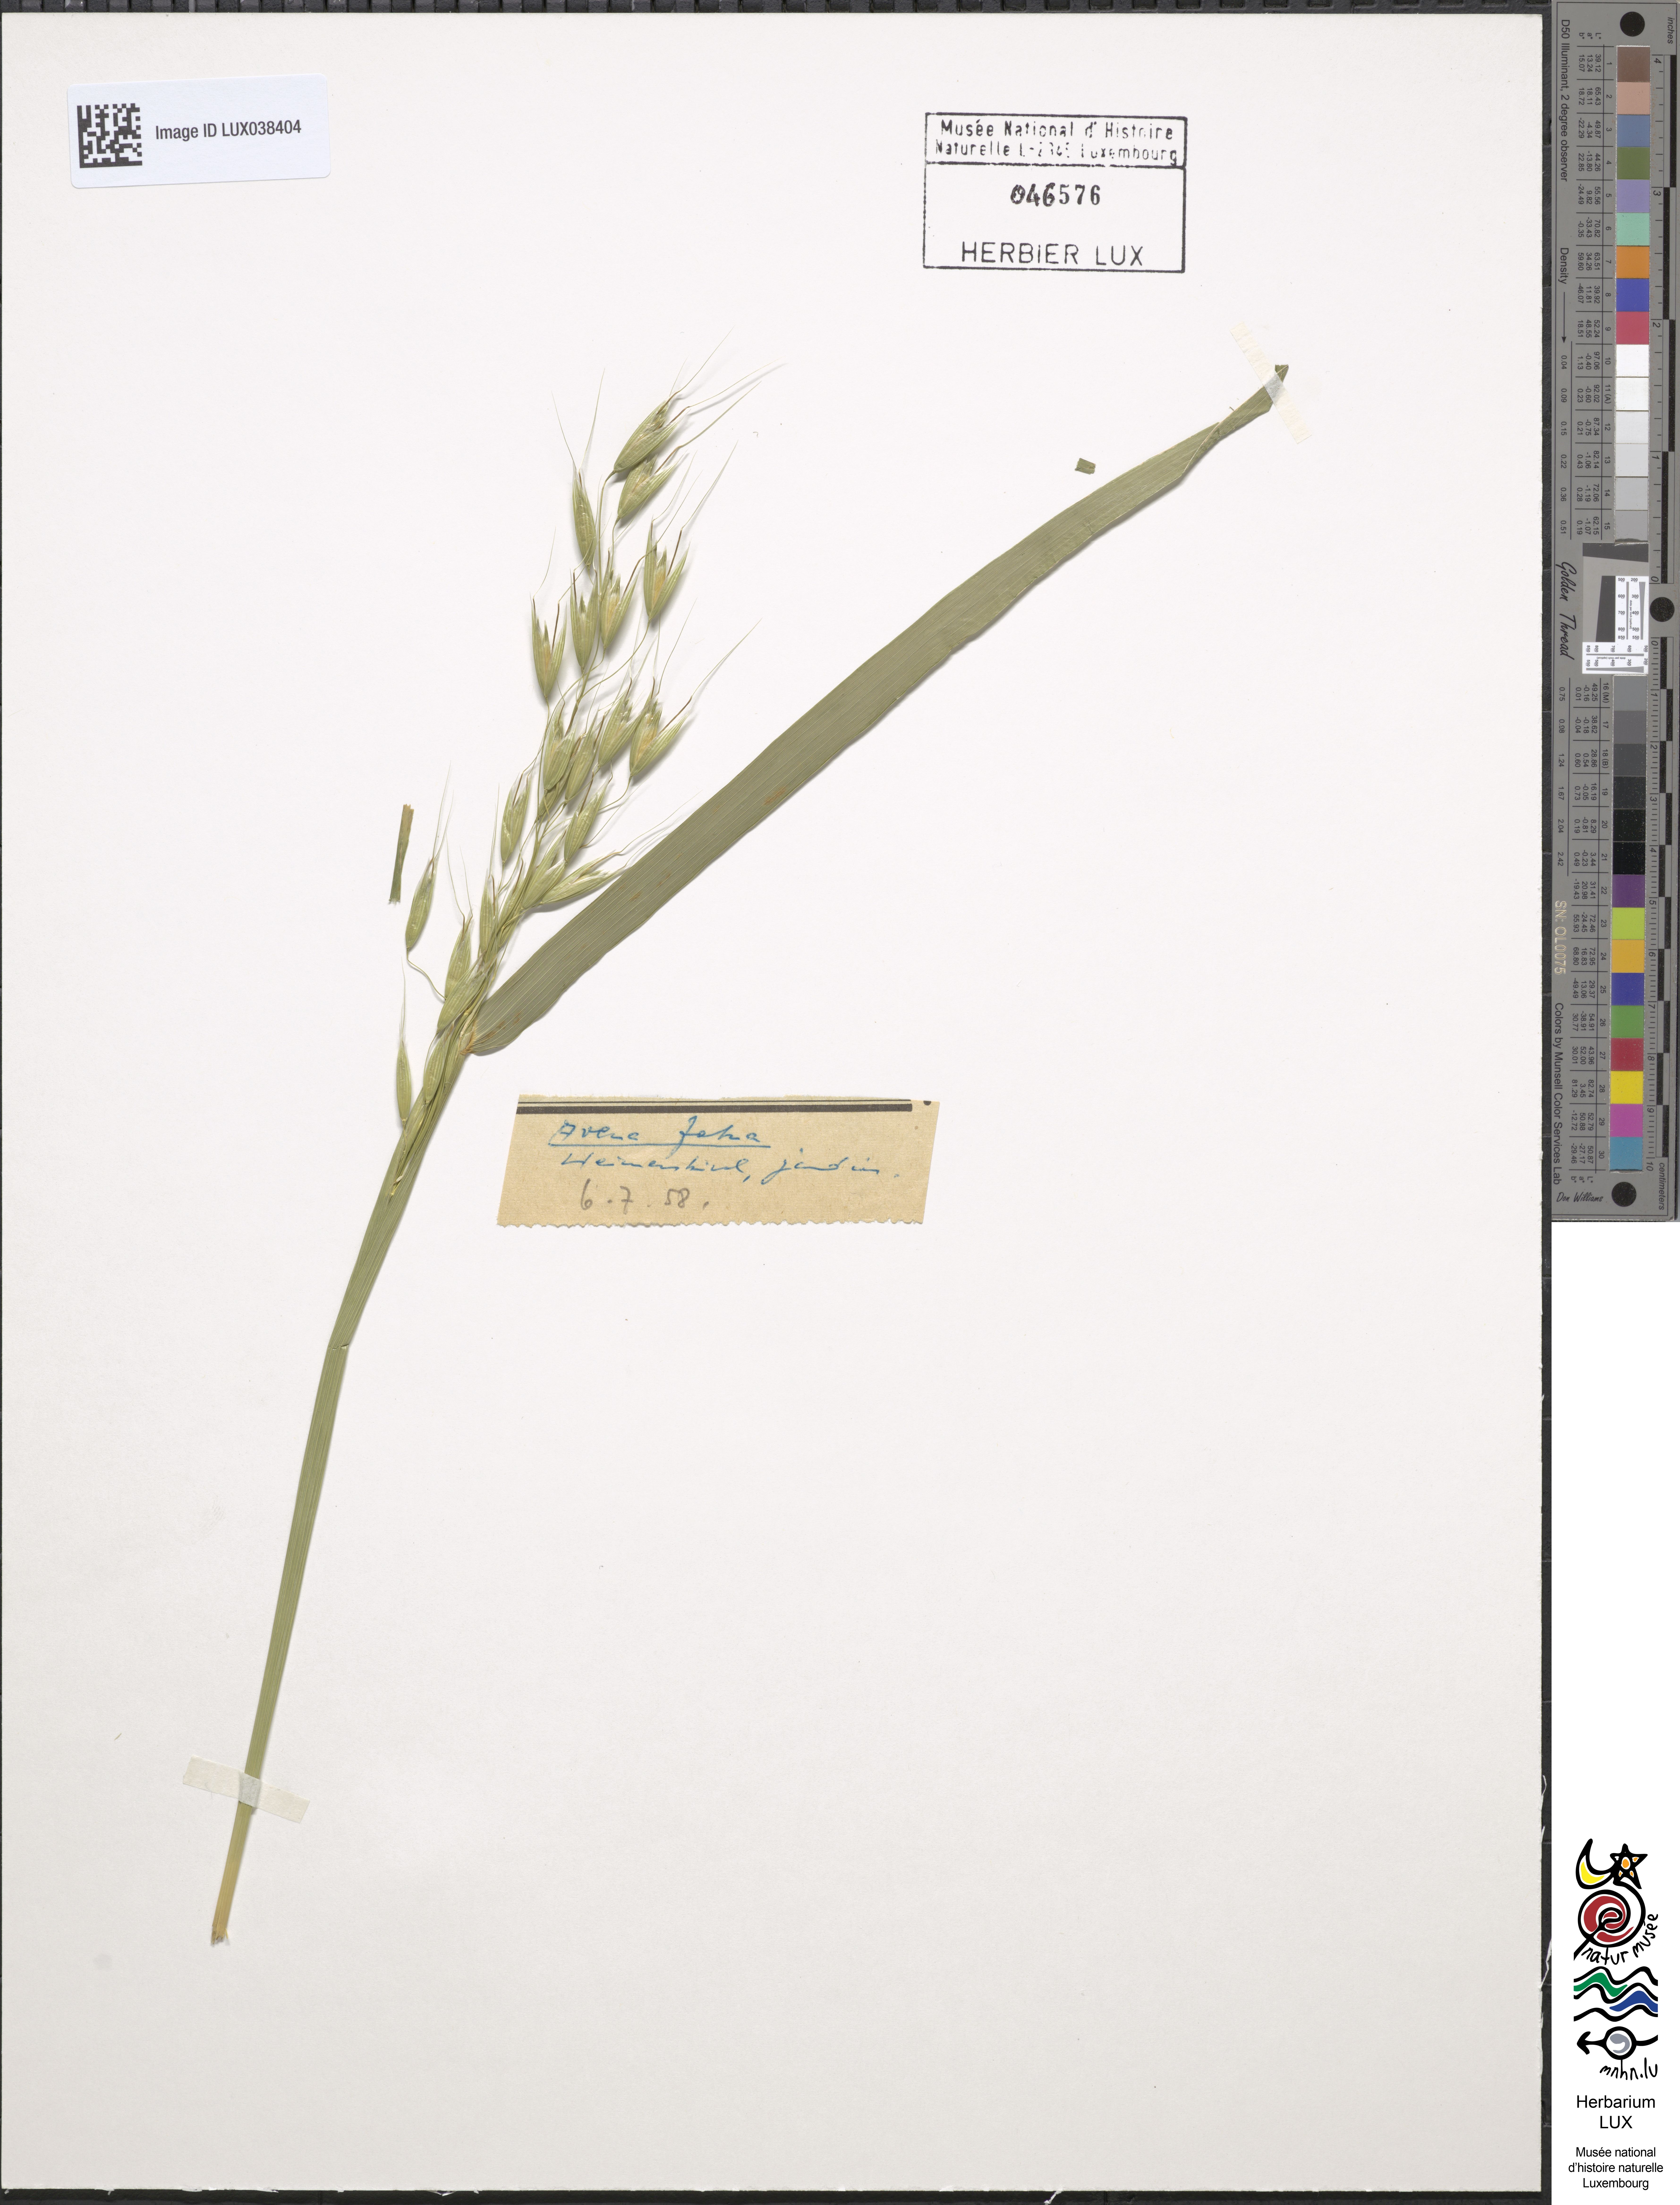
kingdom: Plantae
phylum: Tracheophyta
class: Liliopsida
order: Poales
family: Poaceae
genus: Avena
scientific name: Avena fatua
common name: Wild oat
